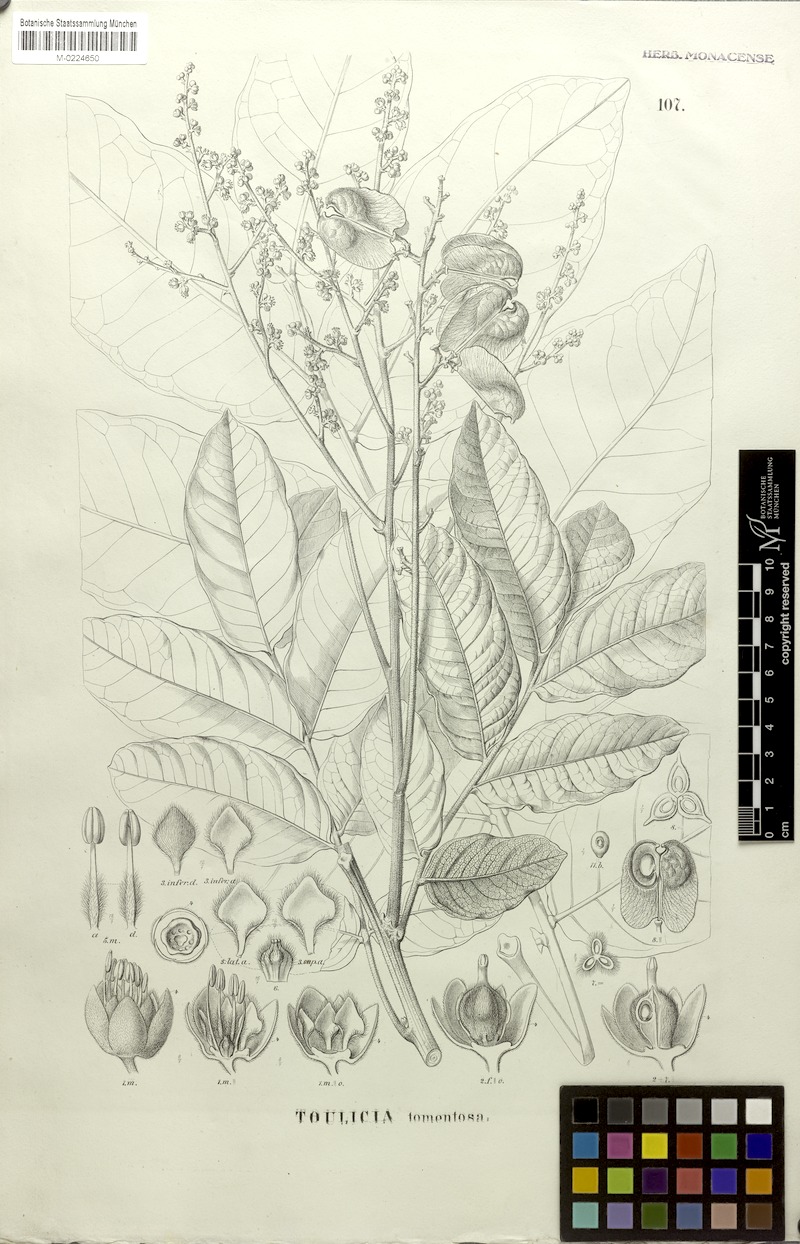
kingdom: Plantae
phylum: Tracheophyta
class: Magnoliopsida
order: Sapindales
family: Sapindaceae
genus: Toulicia
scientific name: Toulicia tomentosa
